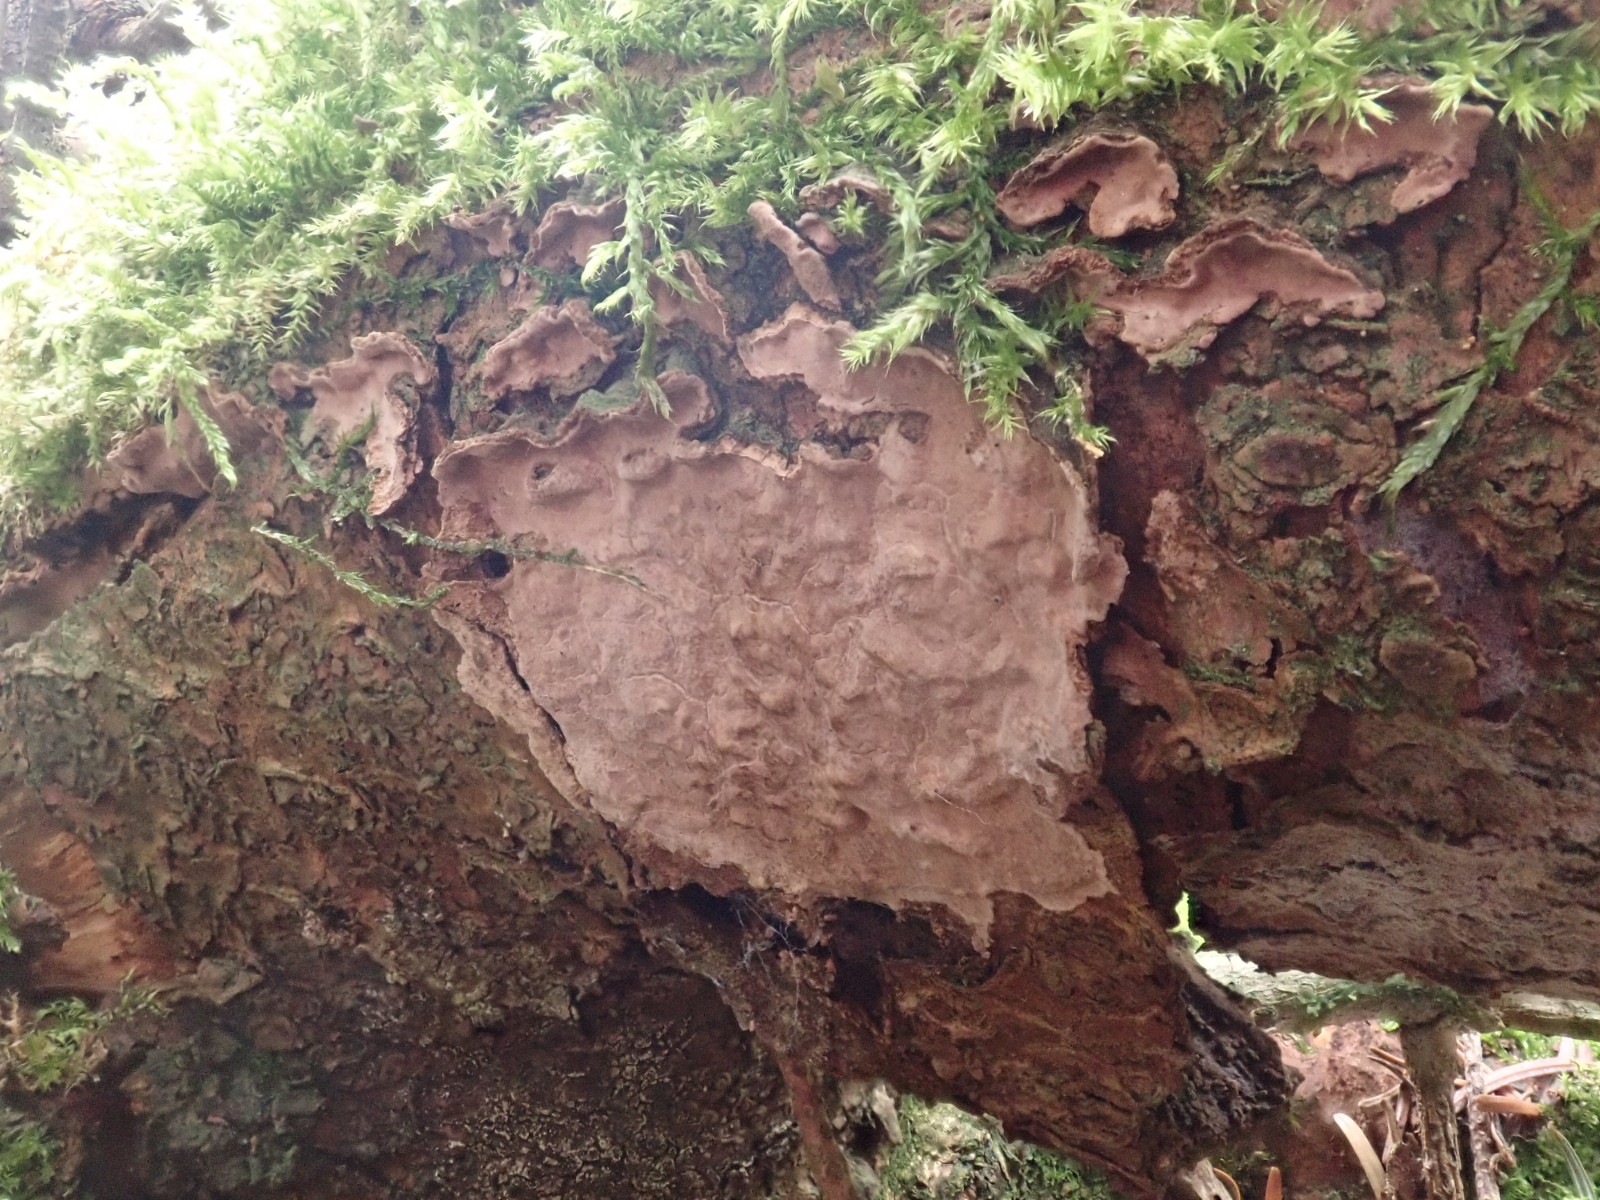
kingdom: Fungi
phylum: Basidiomycota
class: Agaricomycetes
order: Russulales
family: Echinodontiaceae
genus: Amylostereum
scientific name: Amylostereum chailletii
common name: gran-lædersvamp
